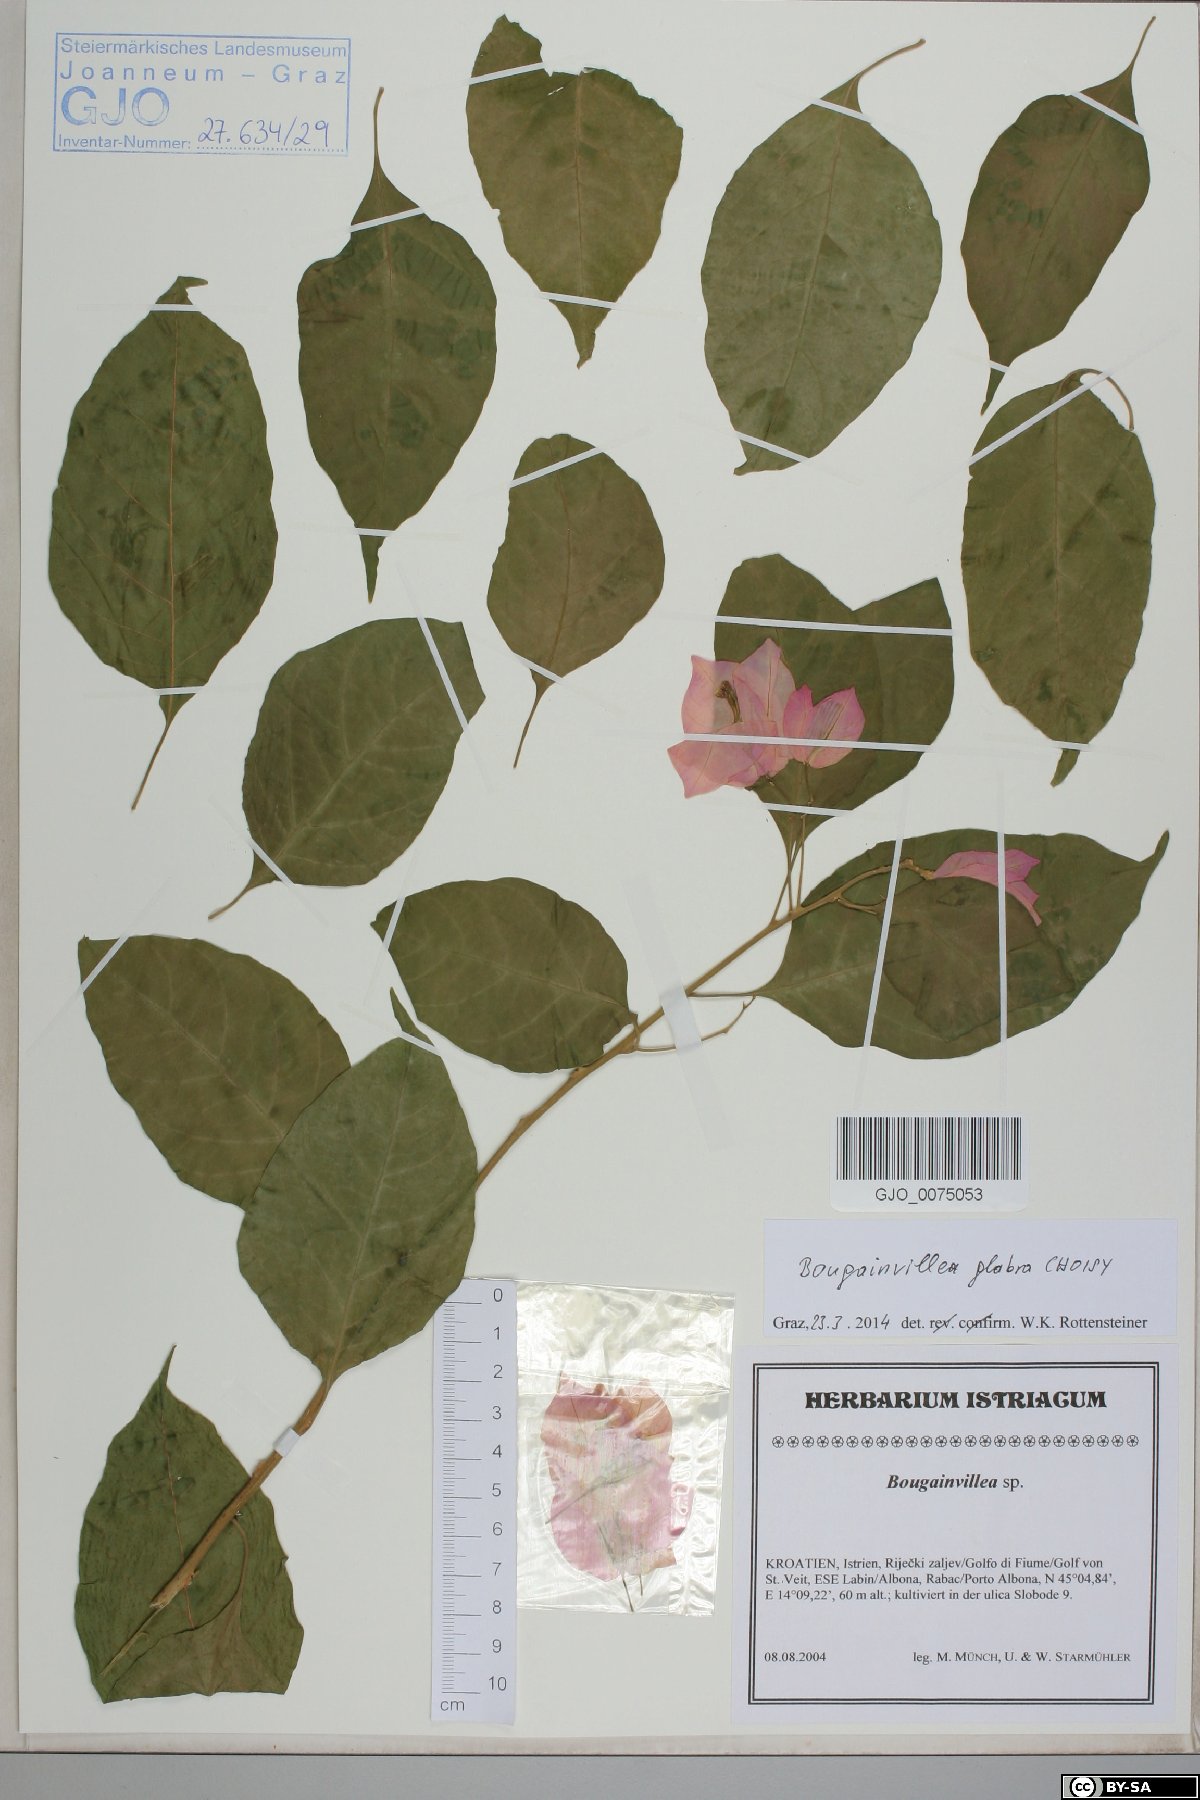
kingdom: Plantae
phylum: Tracheophyta
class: Magnoliopsida
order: Caryophyllales
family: Nyctaginaceae
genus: Bougainvillea
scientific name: Bougainvillea glabra
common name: Paperflower
